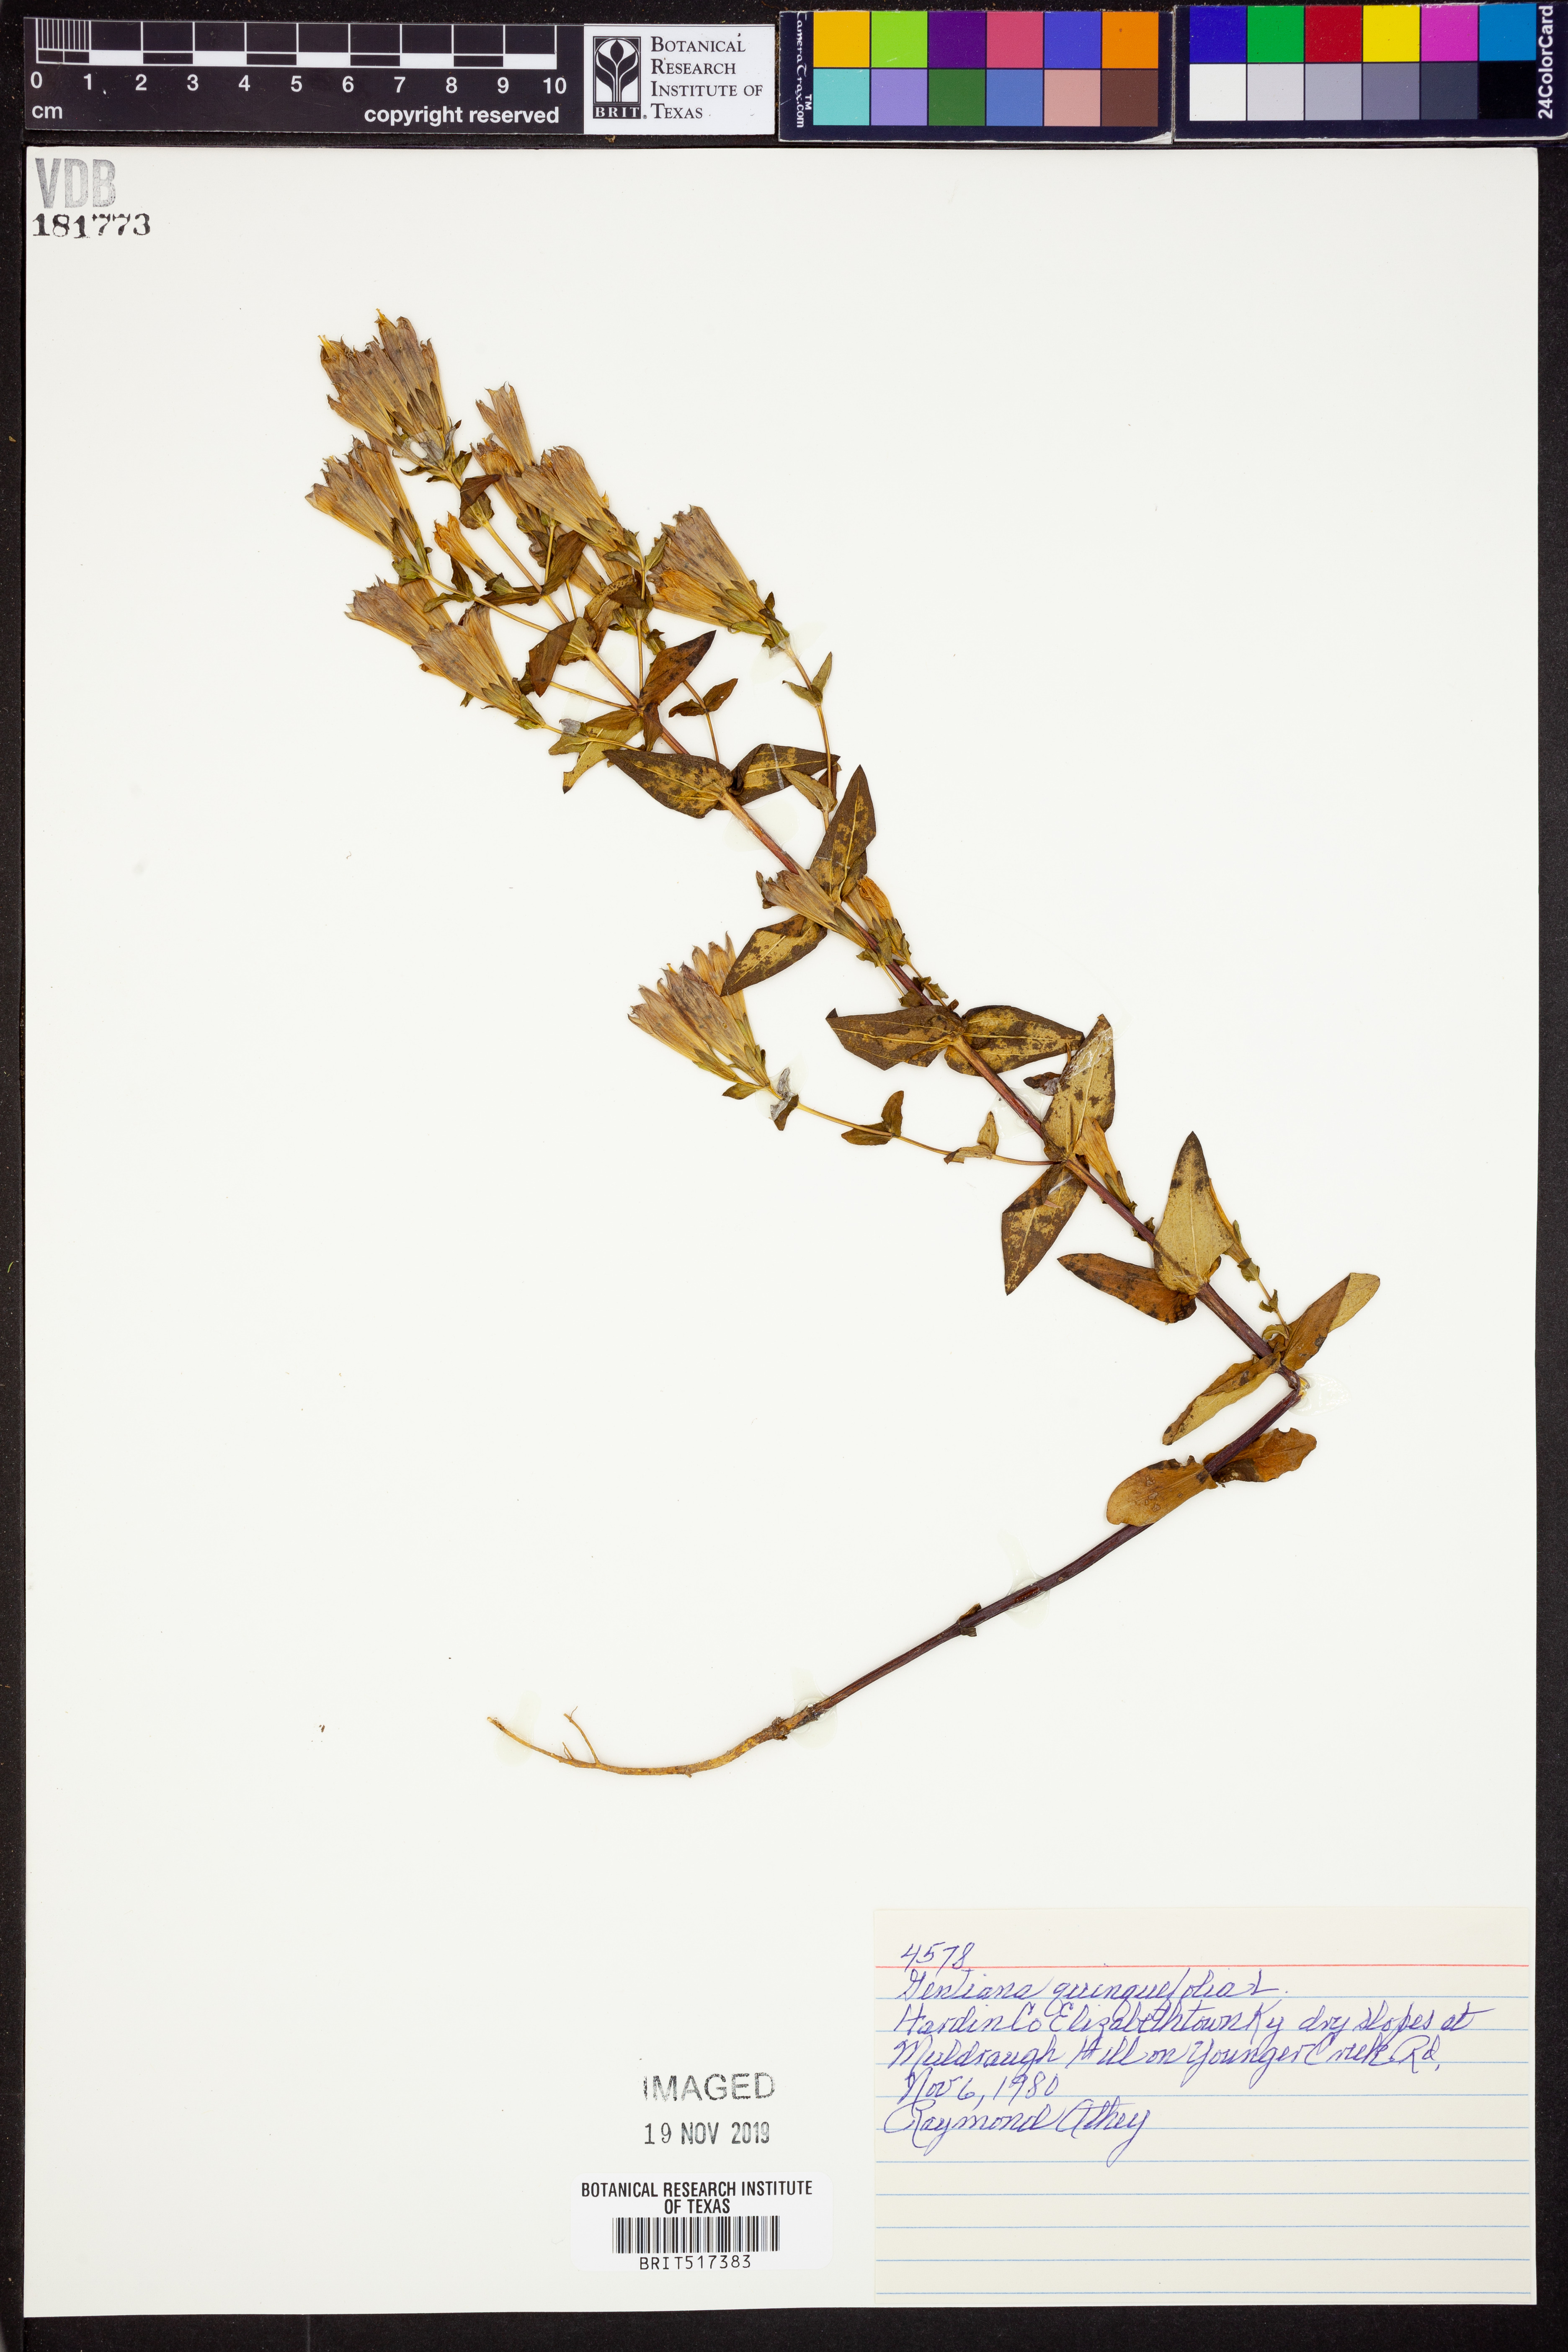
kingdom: Plantae
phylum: Tracheophyta
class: Magnoliopsida
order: Gentianales
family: Gentianaceae
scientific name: Gentianaceae
